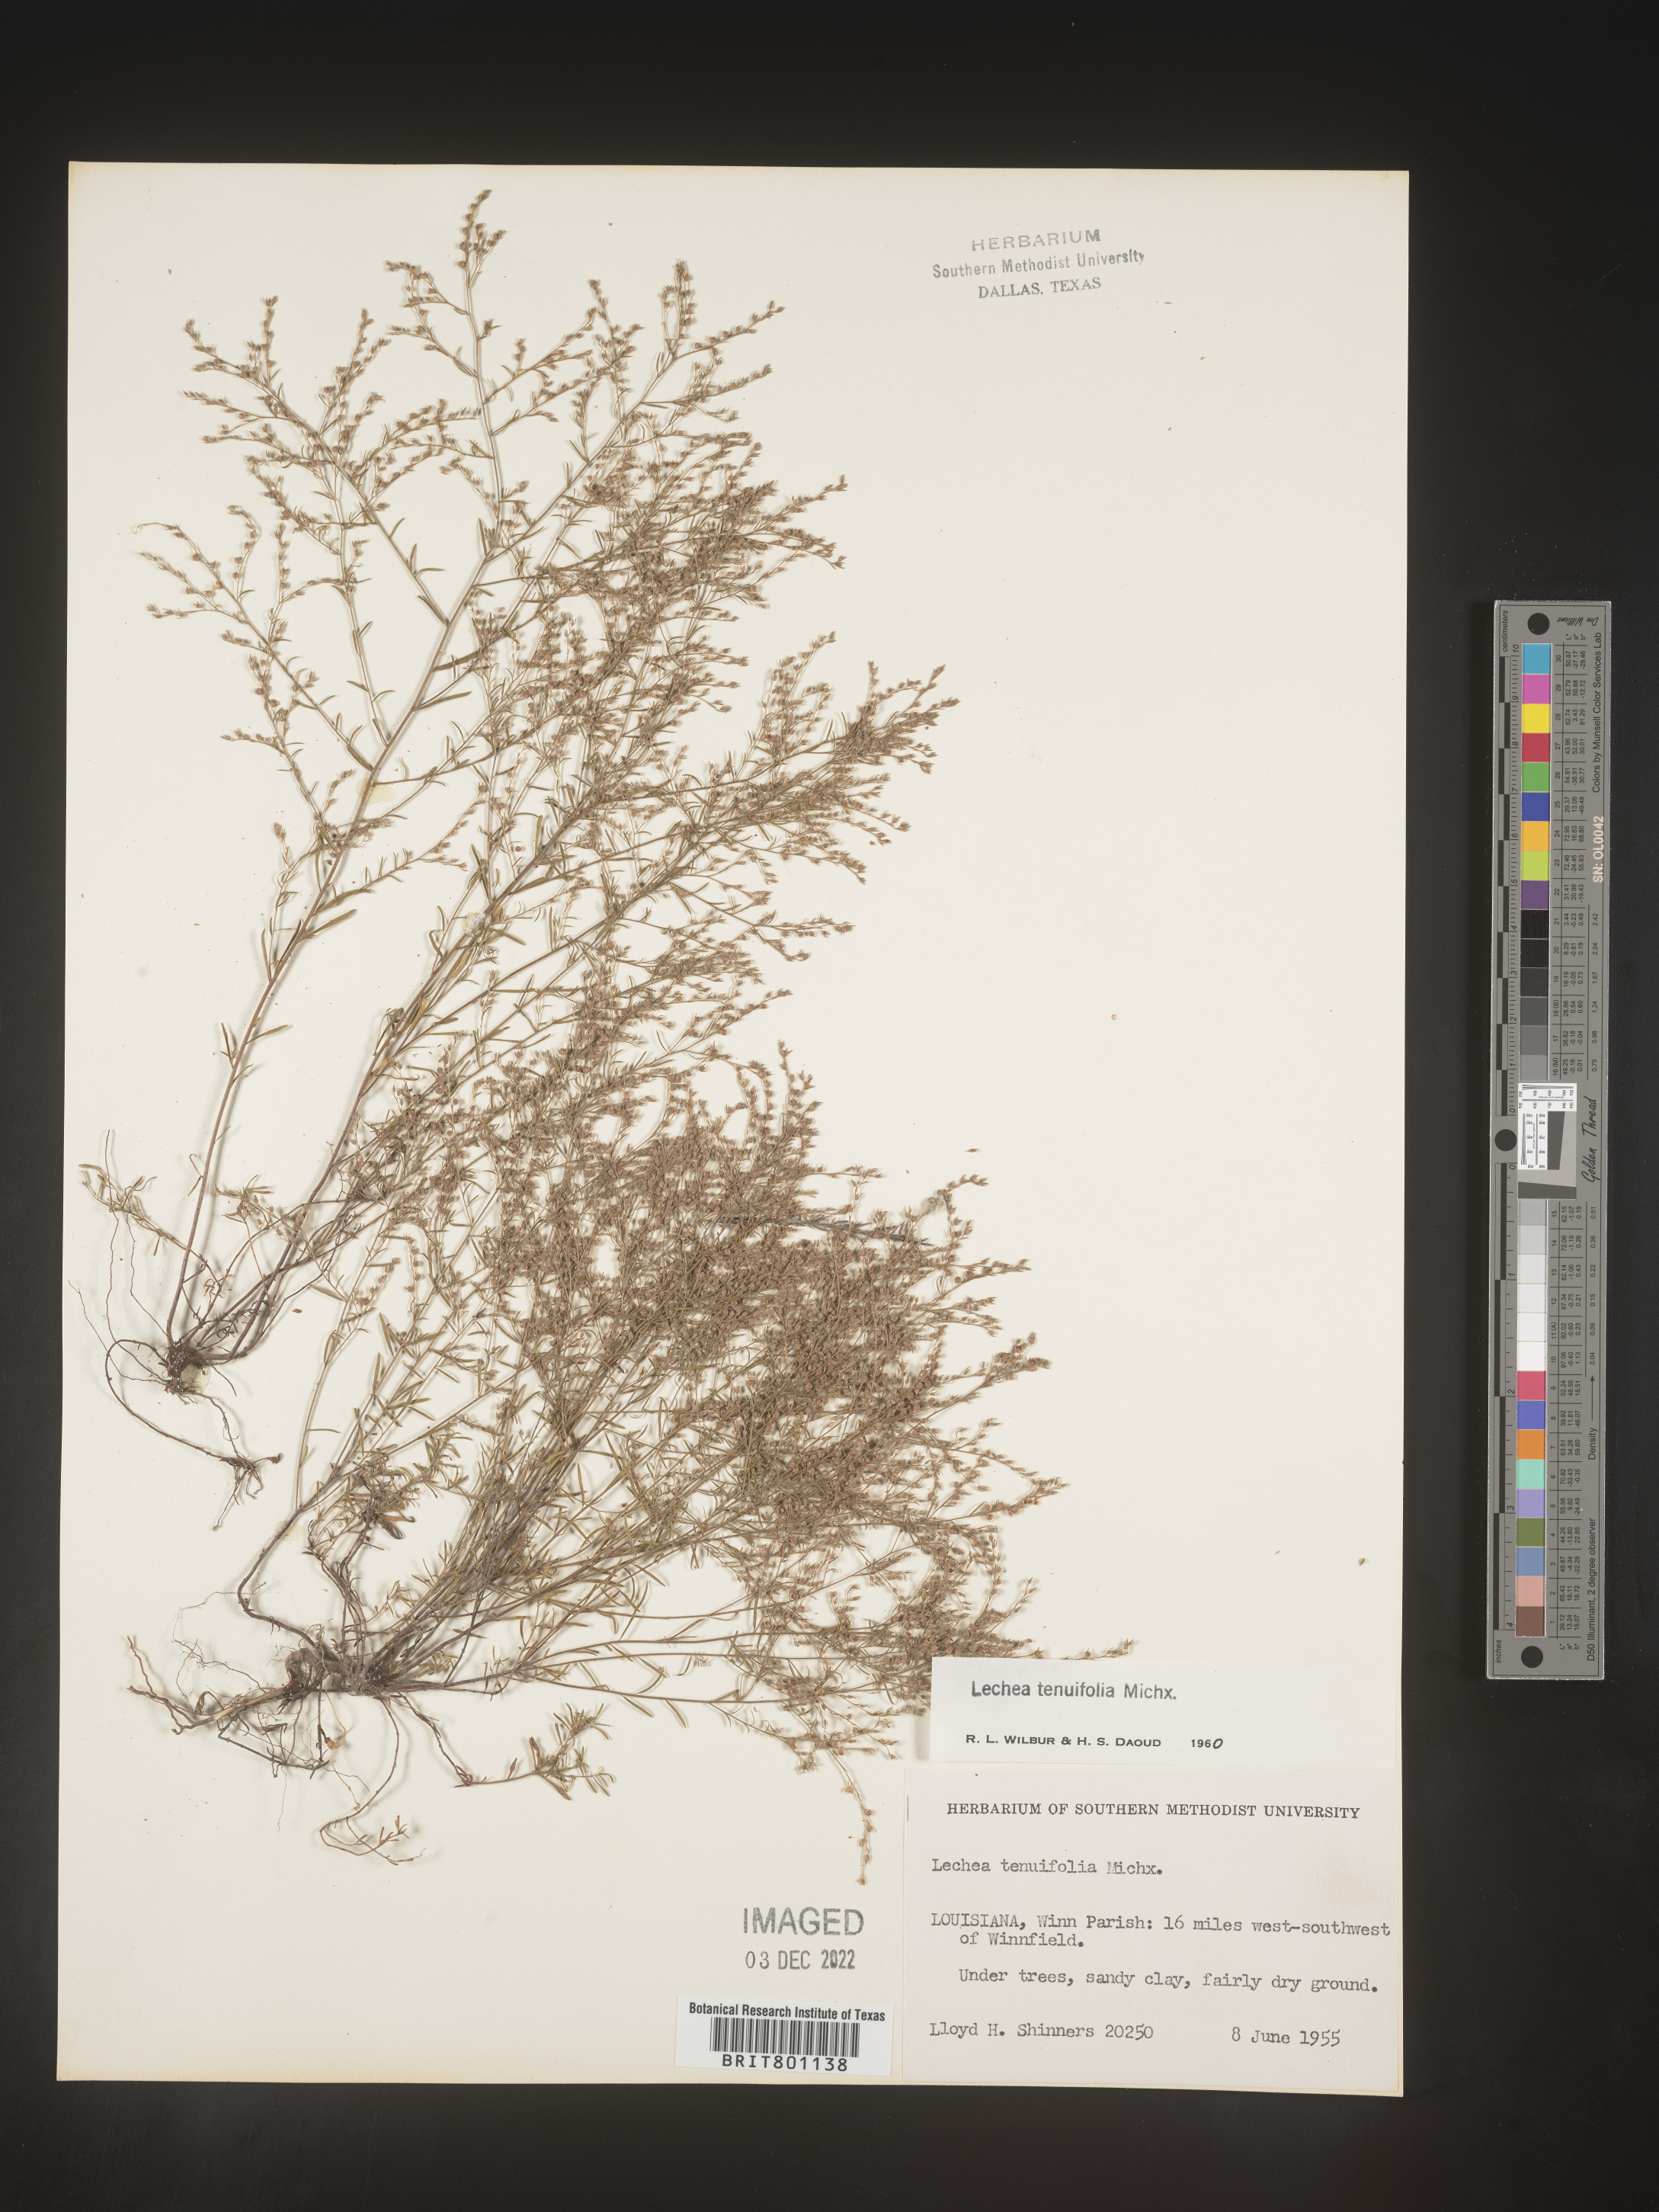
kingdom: Plantae
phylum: Tracheophyta
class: Magnoliopsida
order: Malvales
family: Cistaceae
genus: Lechea
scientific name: Lechea tenuifolia
